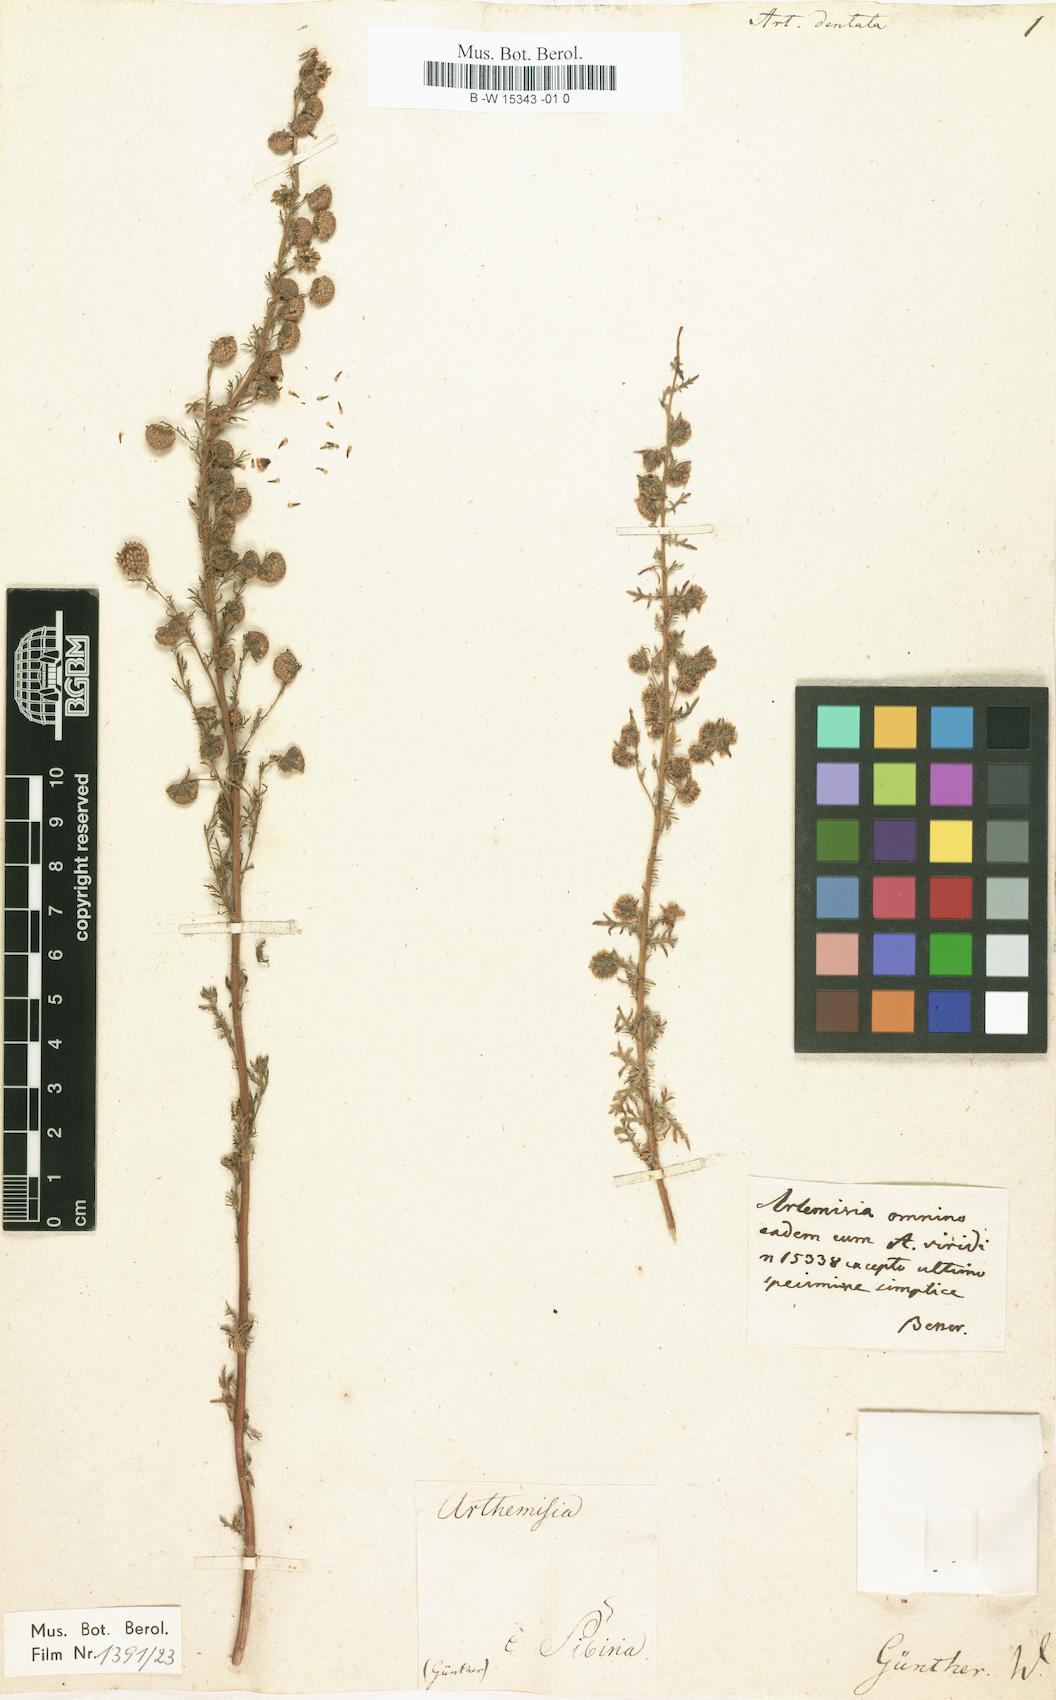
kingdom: Plantae
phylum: Tracheophyta
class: Magnoliopsida
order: Asterales
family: Asteraceae
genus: Artemisia
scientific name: Artemisia rupestris
